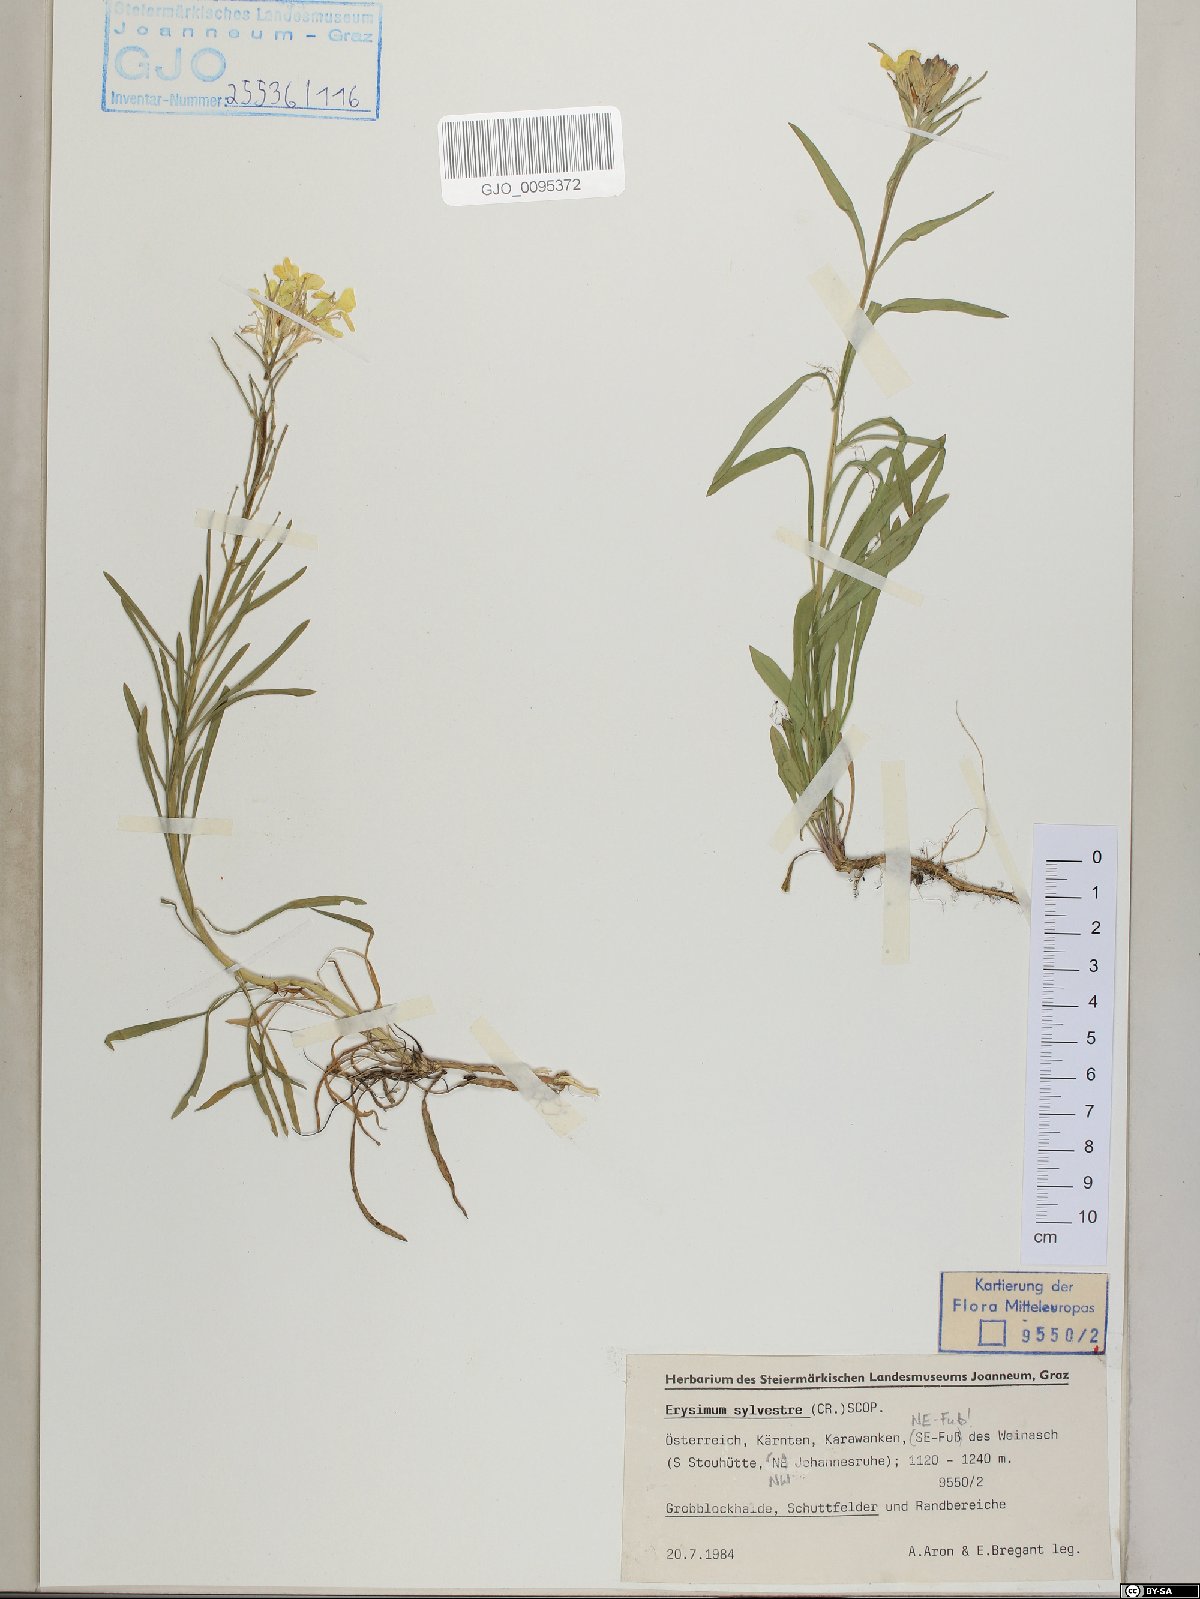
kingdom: Plantae
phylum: Tracheophyta
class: Magnoliopsida
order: Brassicales
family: Brassicaceae
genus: Erysimum
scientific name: Erysimum sylvestre
